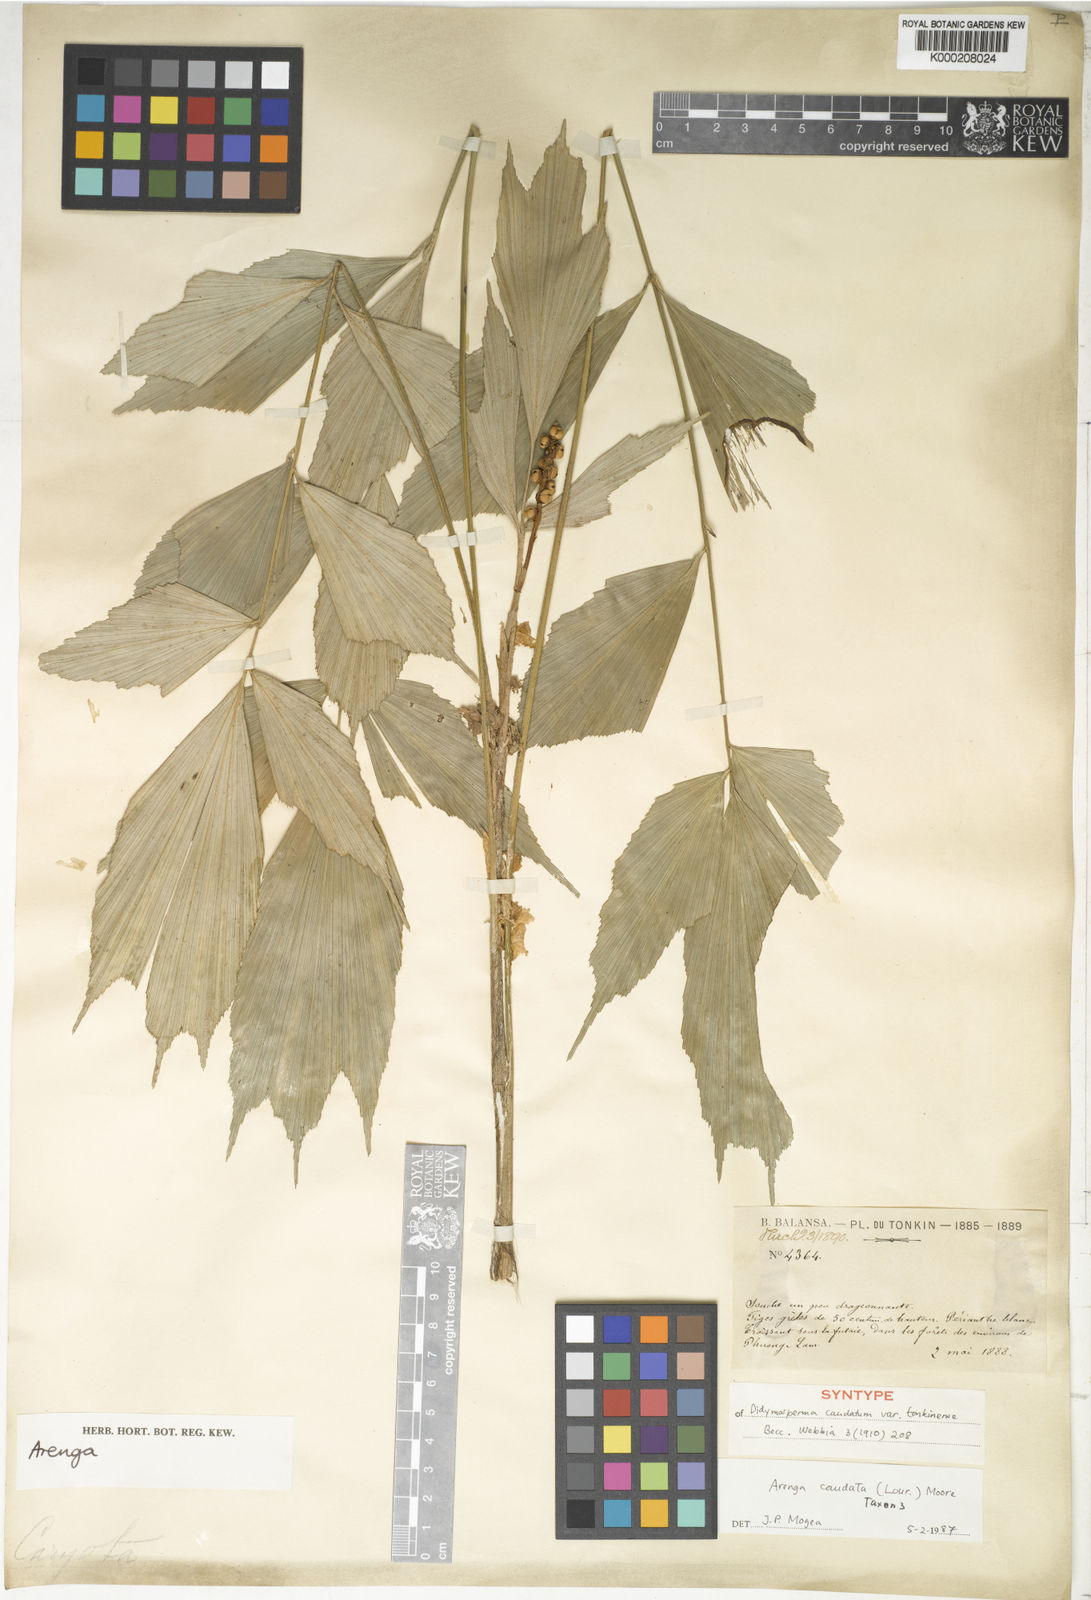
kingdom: Plantae
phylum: Tracheophyta
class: Liliopsida
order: Arecales
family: Arecaceae
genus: Arenga
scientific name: Arenga caudata
